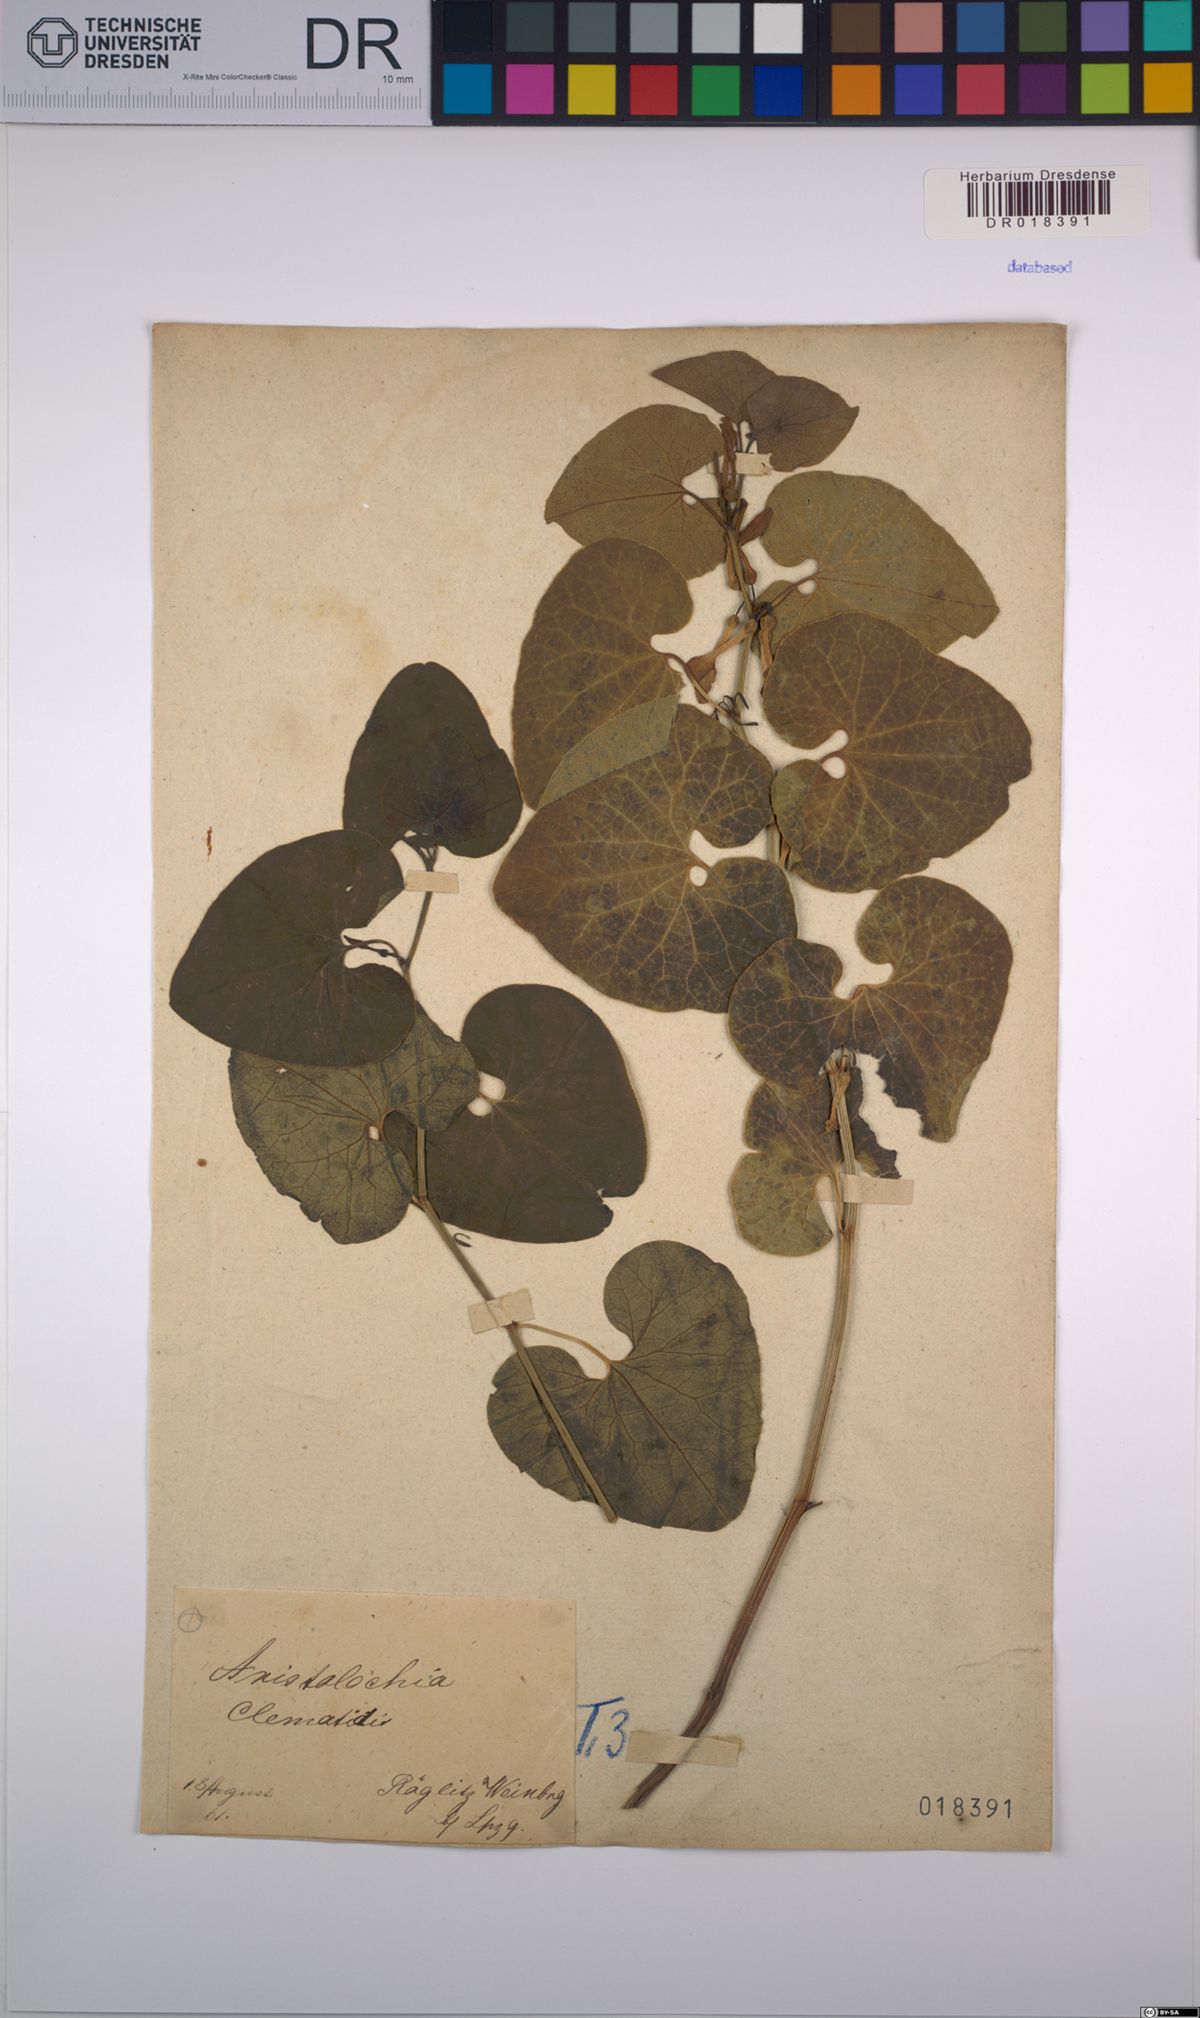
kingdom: Plantae
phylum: Tracheophyta
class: Magnoliopsida
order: Piperales
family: Aristolochiaceae
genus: Aristolochia
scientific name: Aristolochia clematitis
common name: Birthwort
